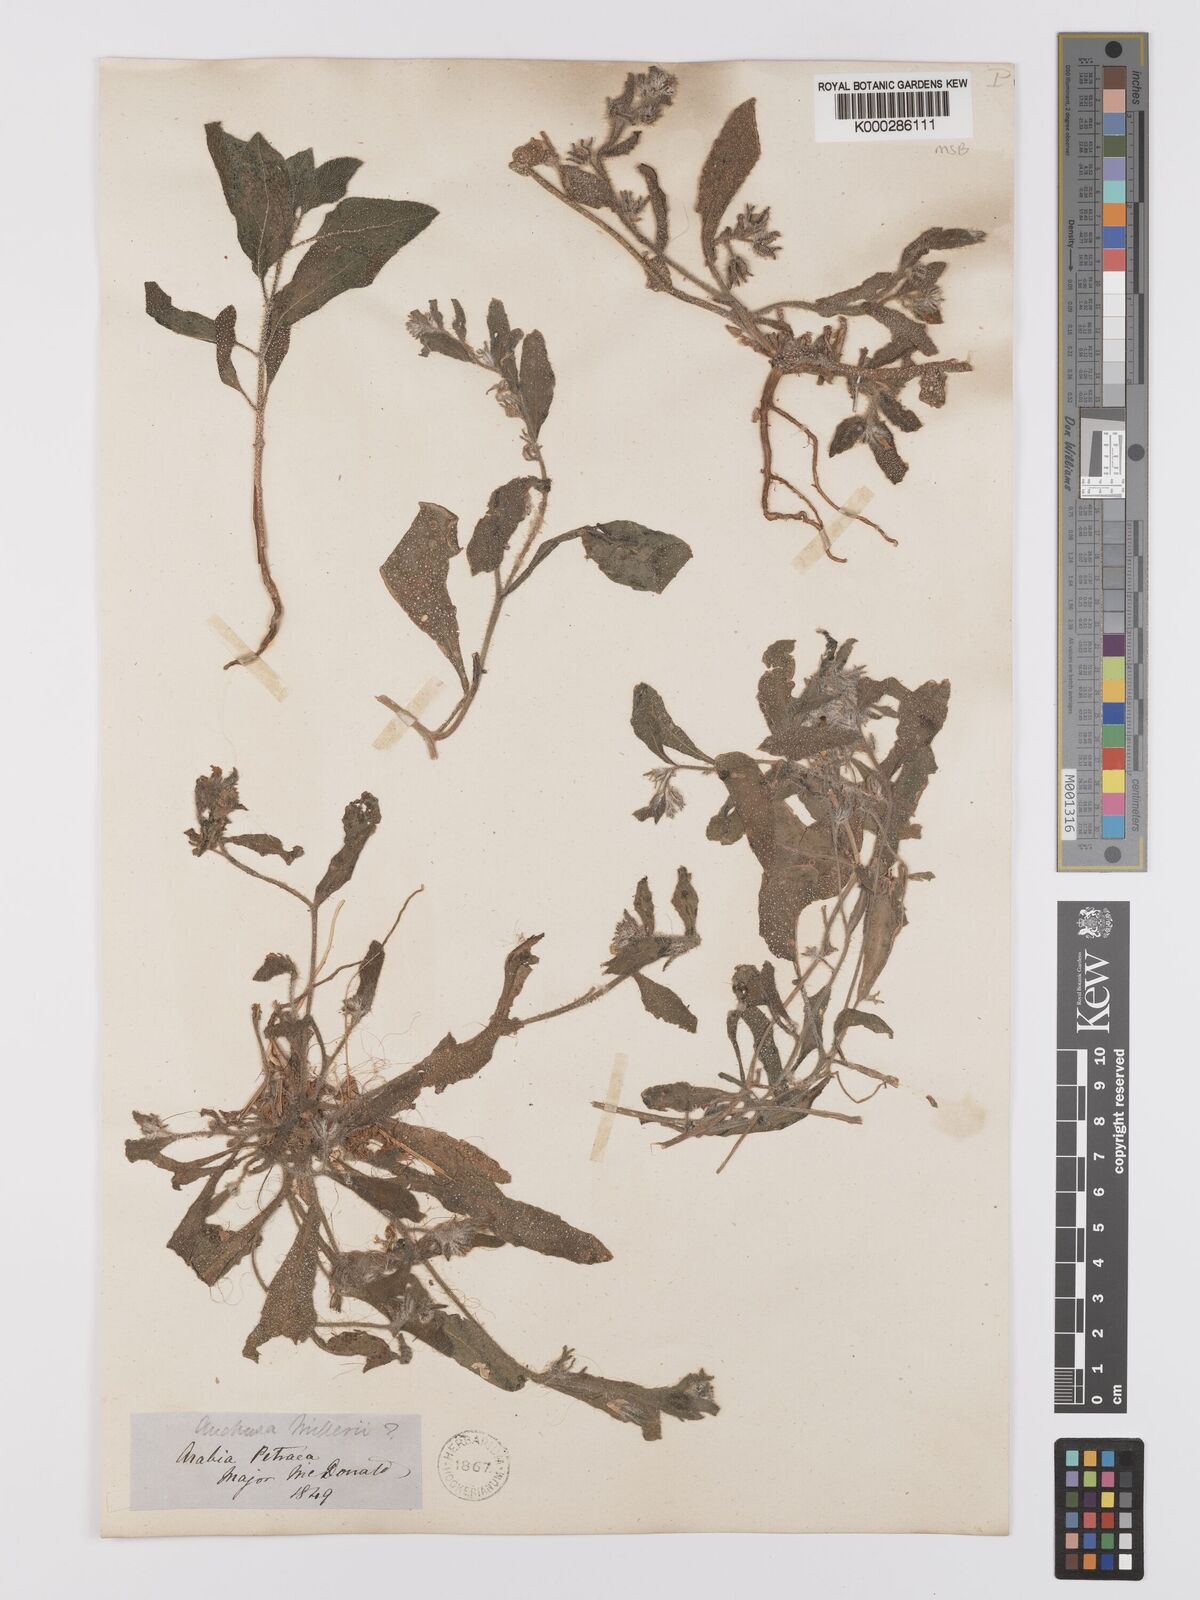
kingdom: Plantae
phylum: Tracheophyta
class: Magnoliopsida
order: Boraginales
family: Boraginaceae
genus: Anchusa
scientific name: Anchusa
